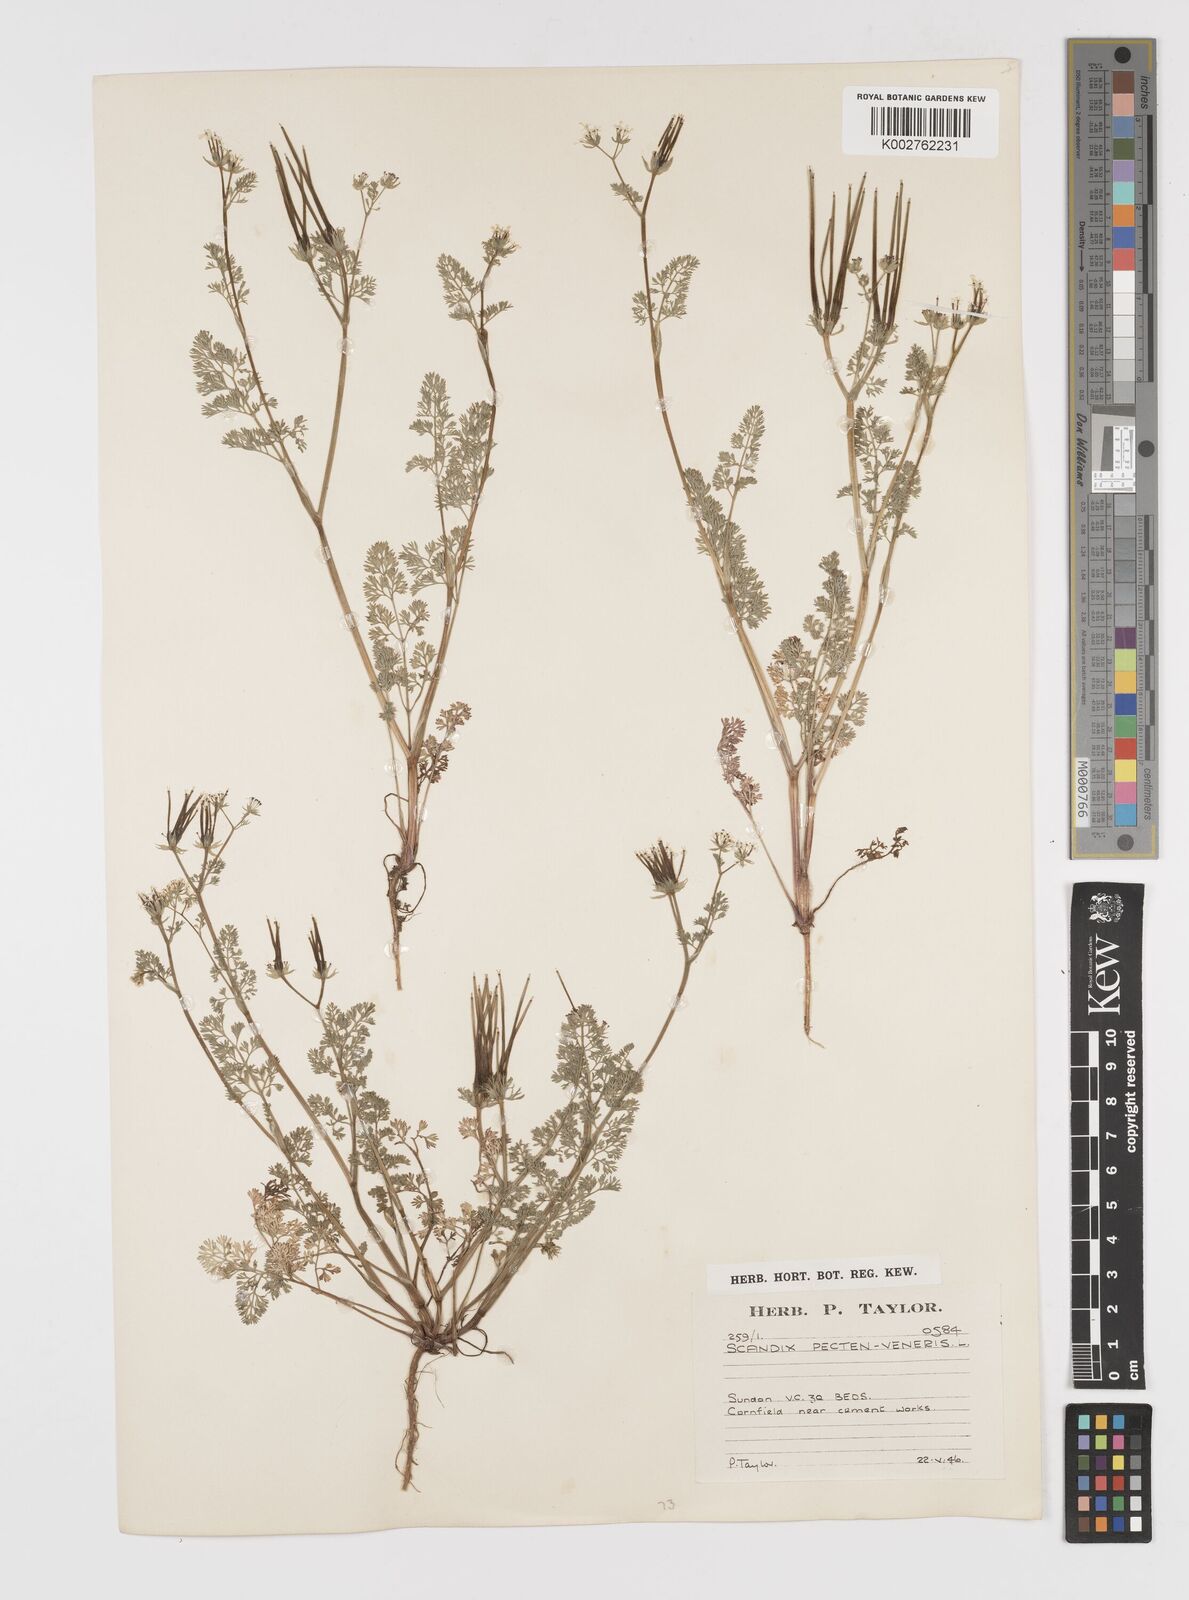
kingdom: Plantae
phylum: Tracheophyta
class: Magnoliopsida
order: Apiales
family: Apiaceae
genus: Scandix
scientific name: Scandix pecten-veneris
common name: Shepherd's-needle
